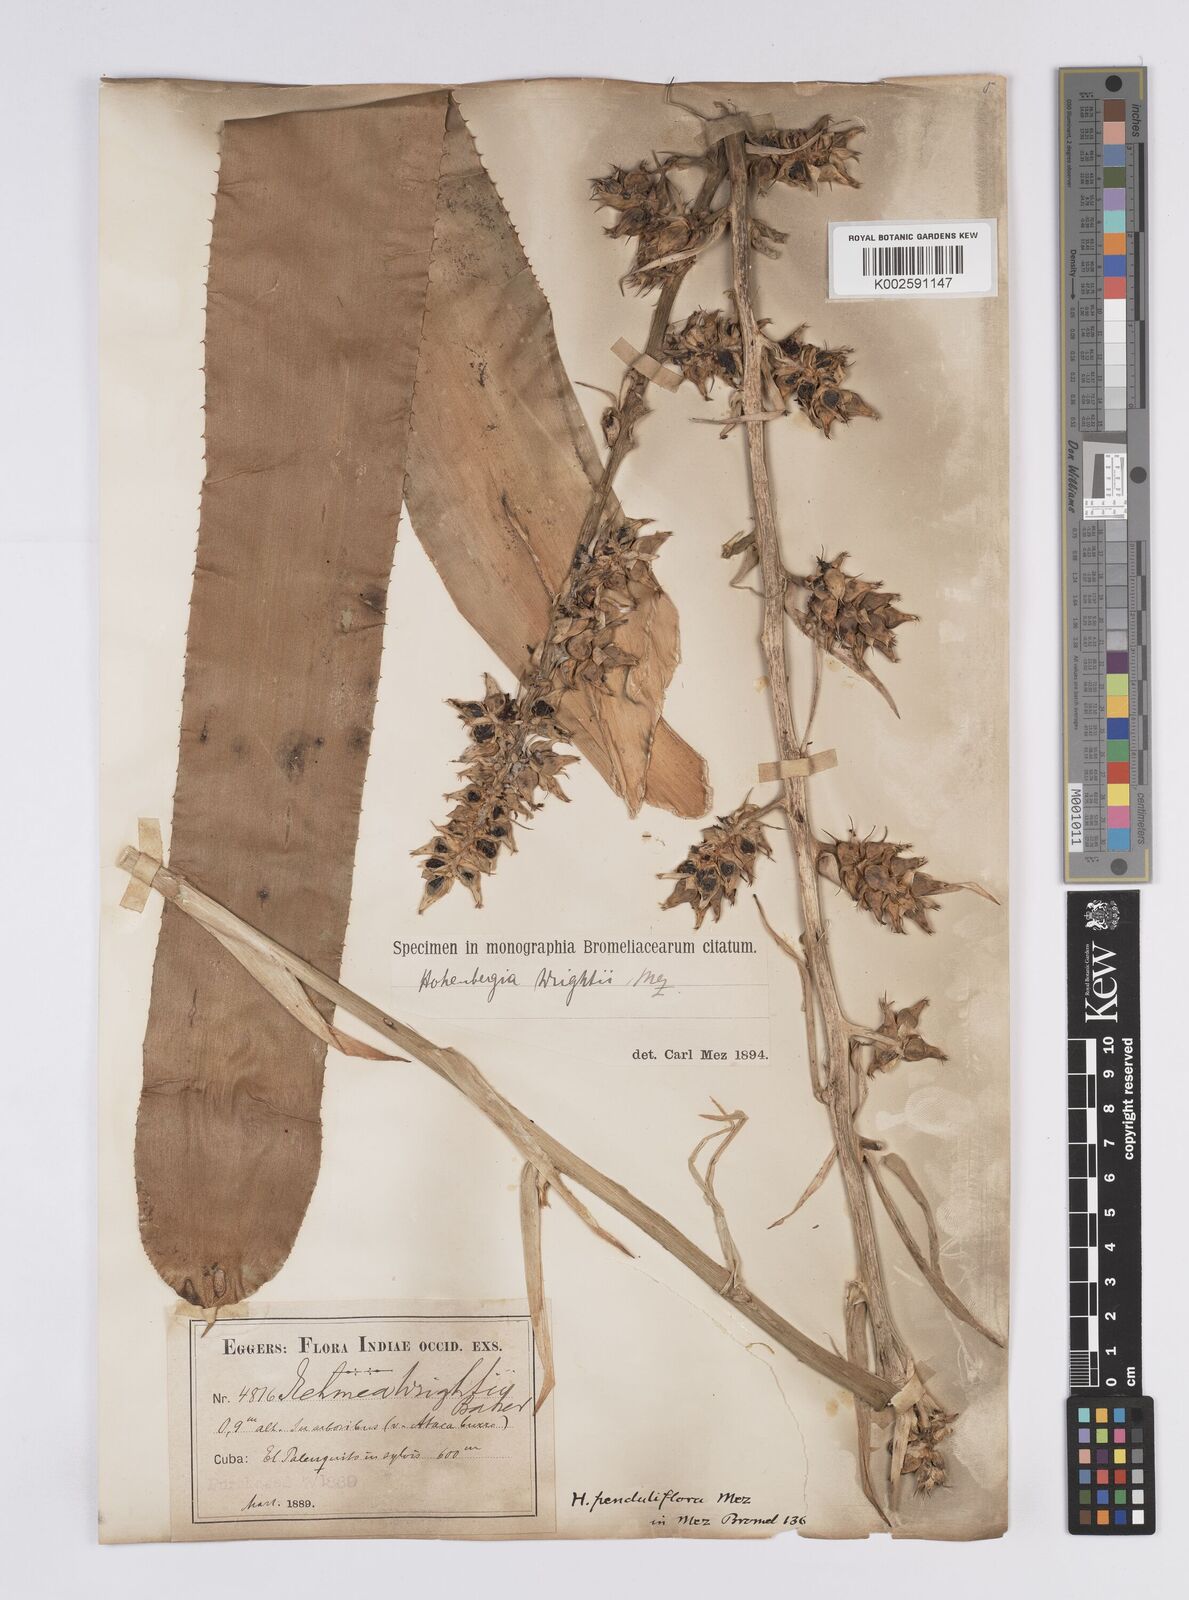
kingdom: Plantae
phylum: Tracheophyta
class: Liliopsida
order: Poales
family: Bromeliaceae
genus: Wittmackia
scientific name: Wittmackia penduliflora
